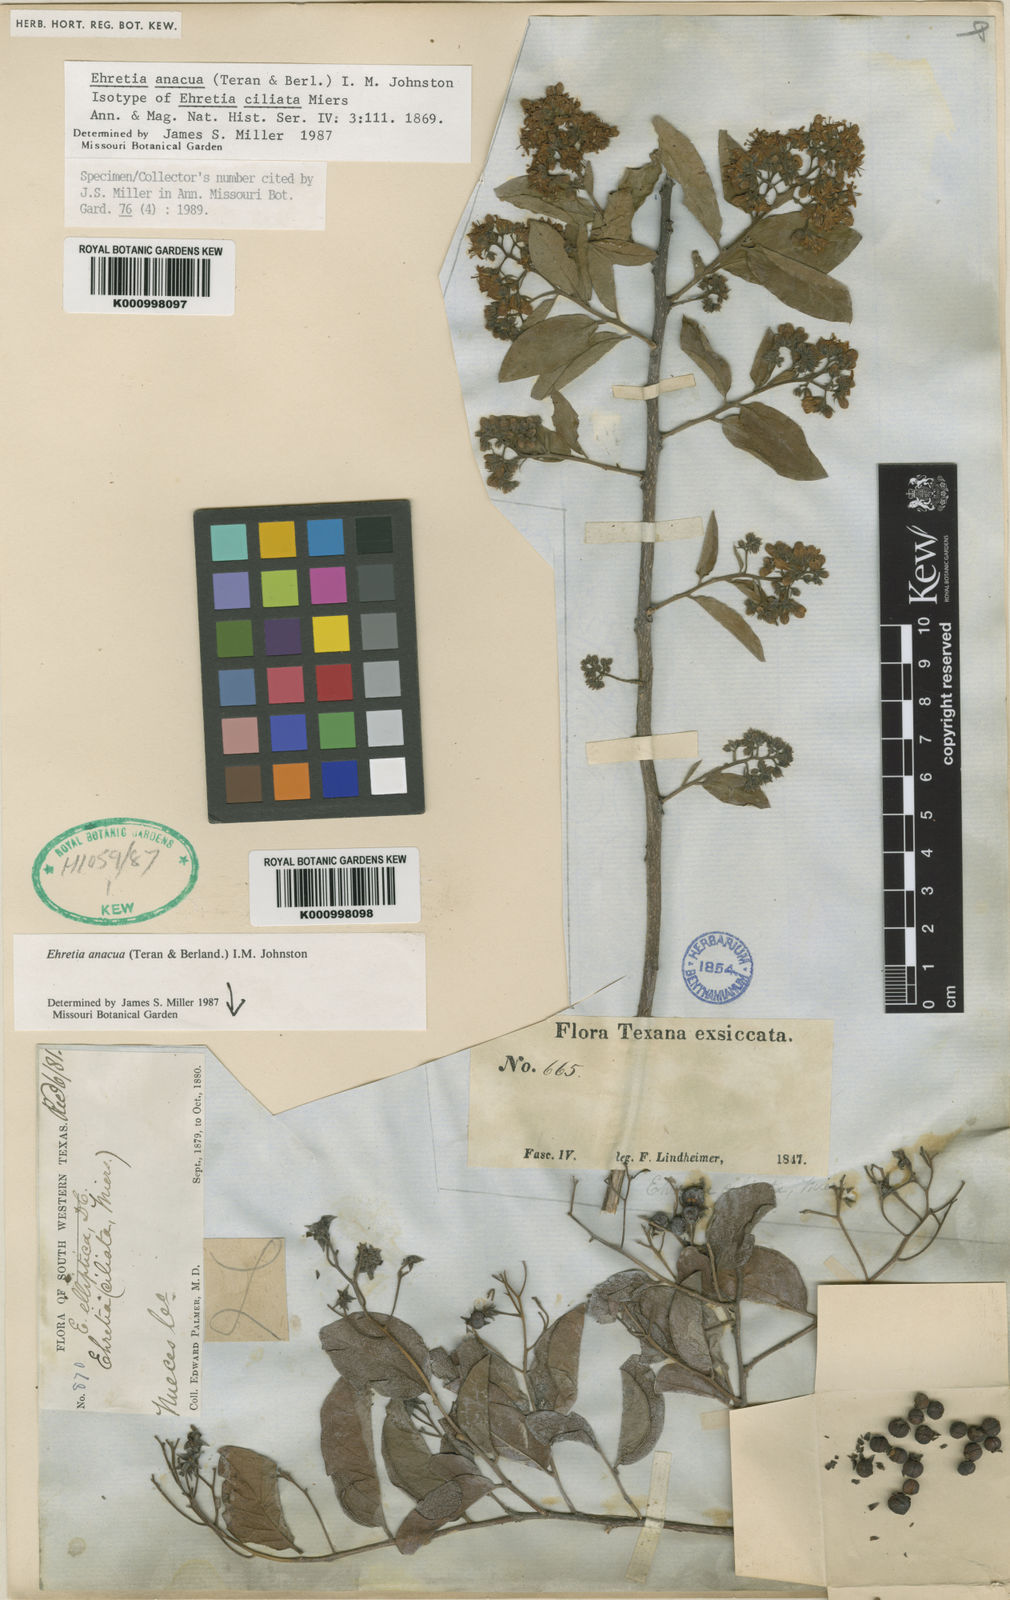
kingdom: Plantae
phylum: Tracheophyta
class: Magnoliopsida
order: Boraginales
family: Ehretiaceae
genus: Ehretia
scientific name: Ehretia anacua
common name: Sugarberry
